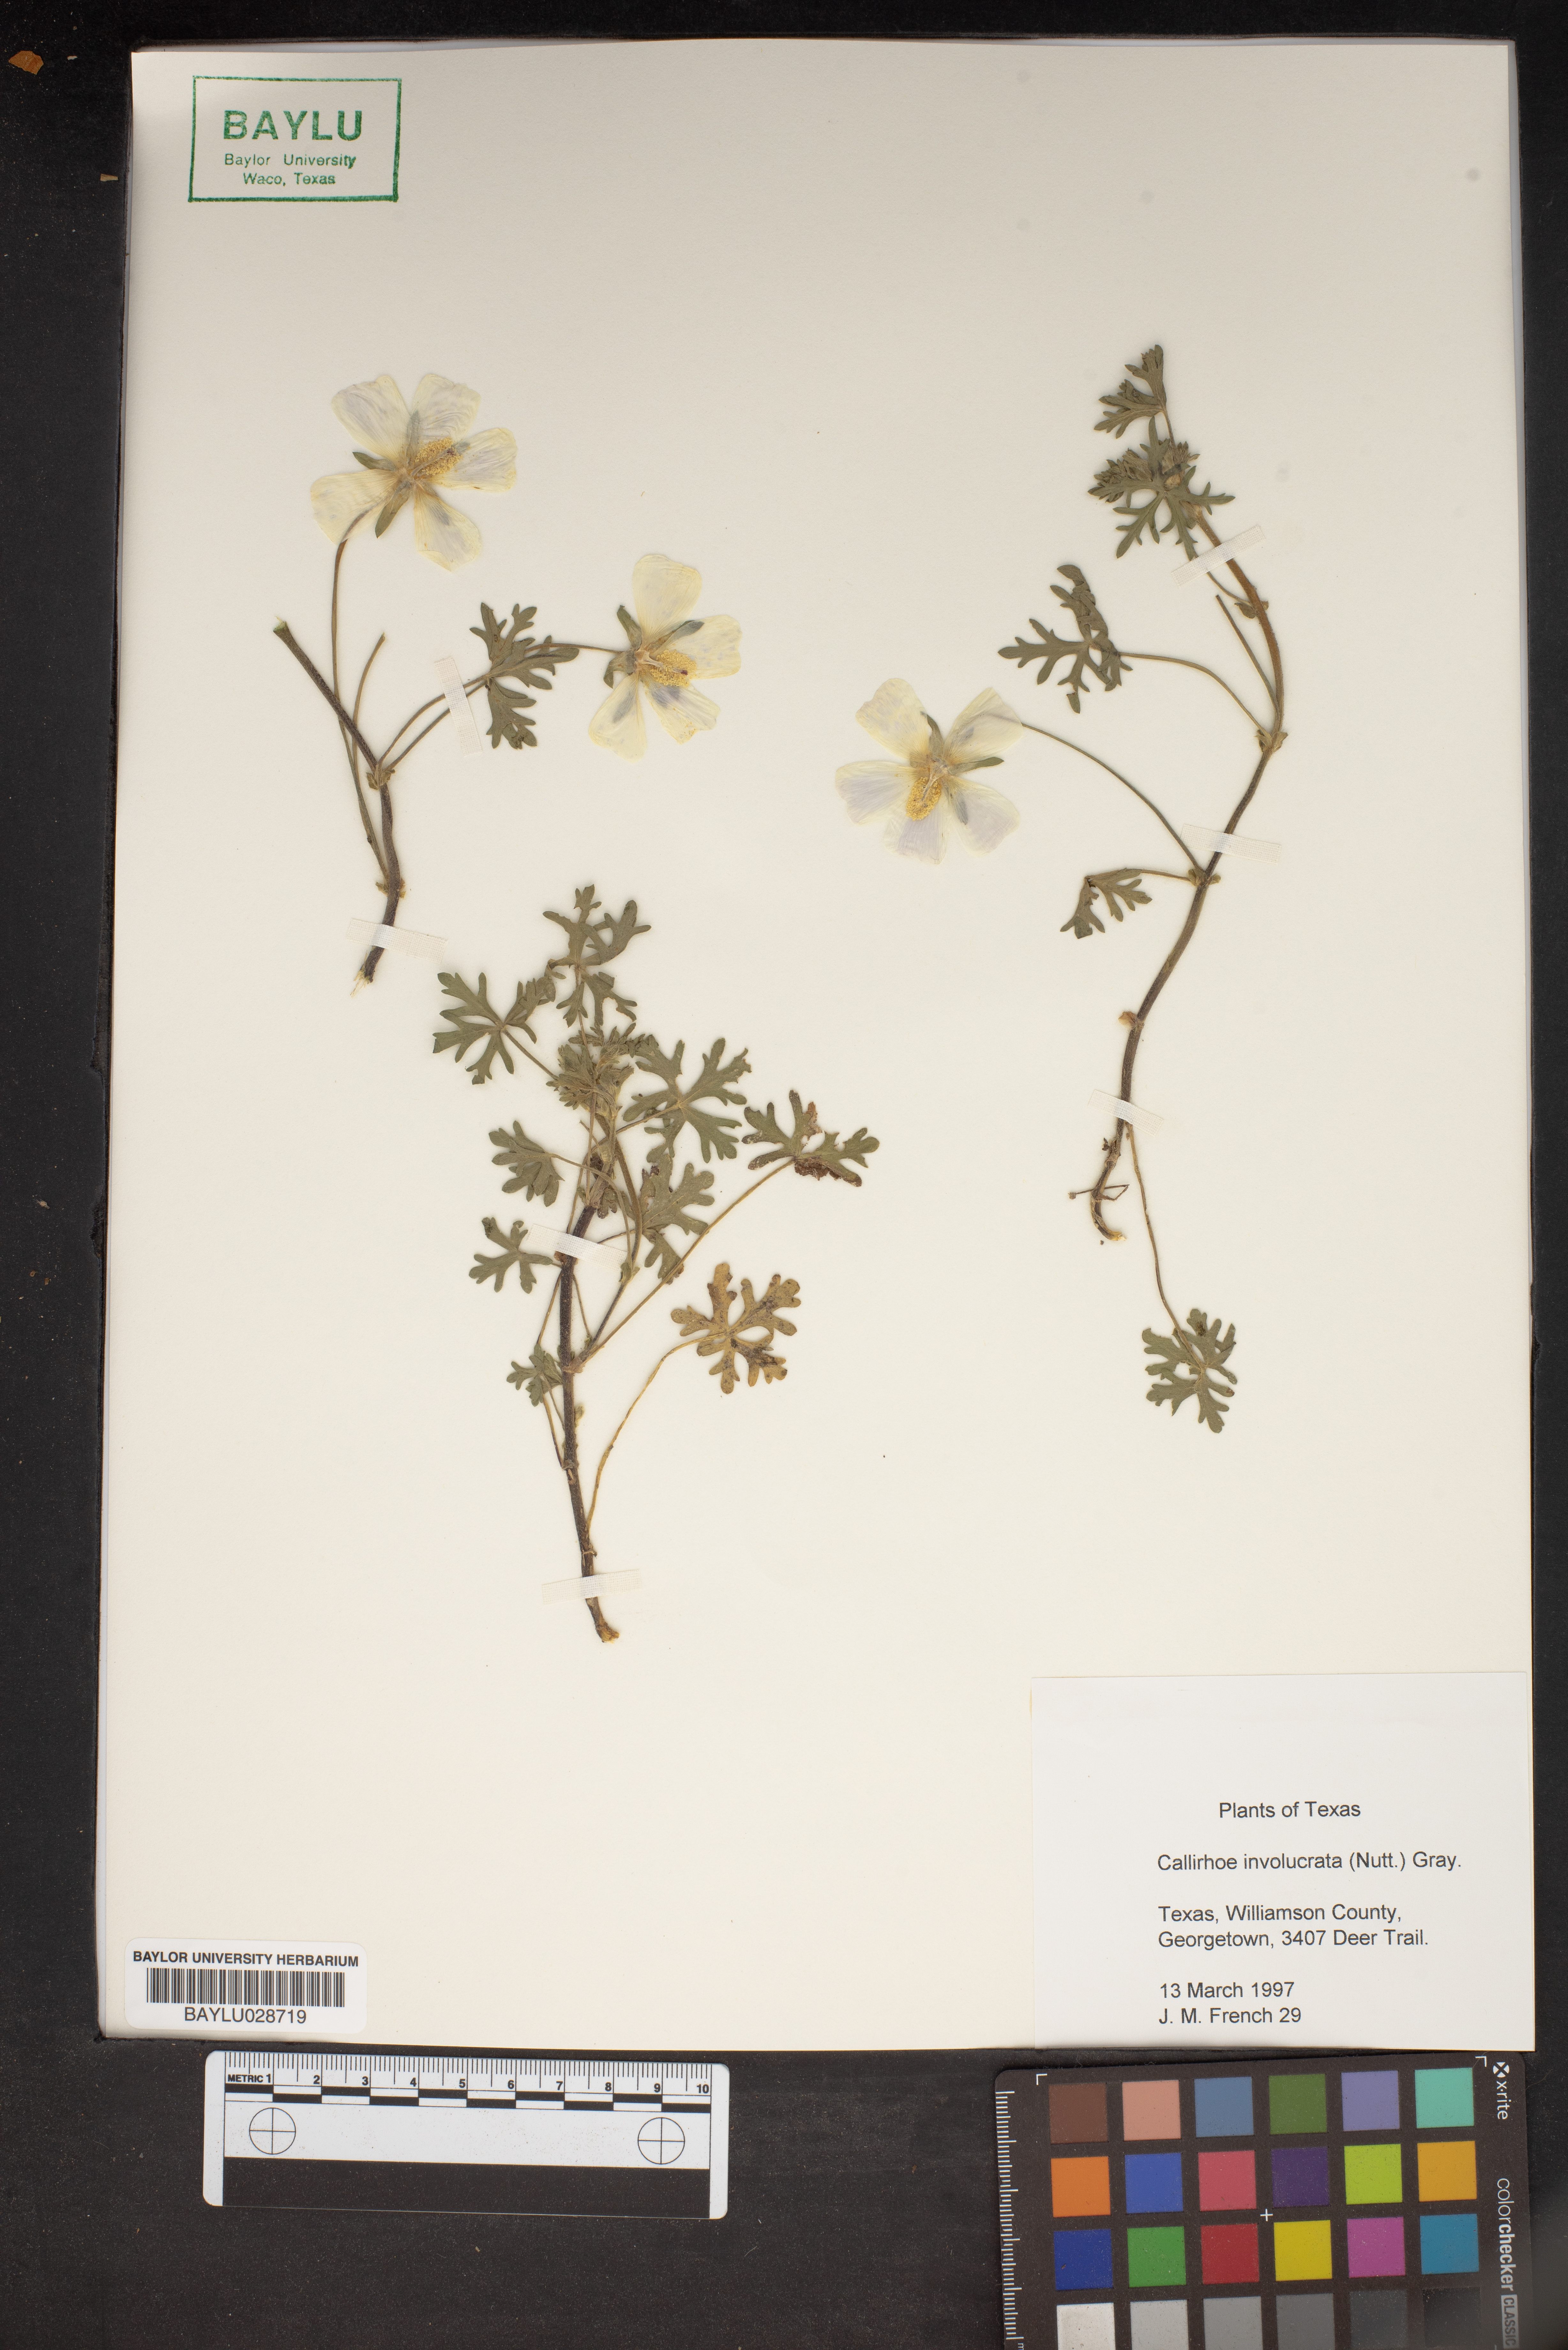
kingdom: Plantae
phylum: Tracheophyta
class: Magnoliopsida
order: Malvales
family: Malvaceae
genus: Callirhoe
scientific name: Callirhoe involucrata
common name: Purple poppy-mallow
